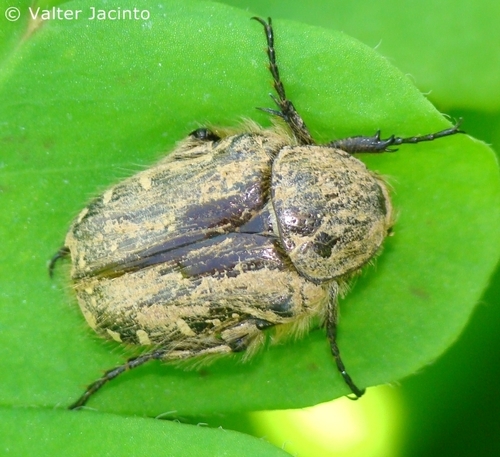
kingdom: Animalia
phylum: Arthropoda
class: Insecta
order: Coleoptera
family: Scarabaeidae
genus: Oxythyrea
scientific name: Oxythyrea funesta
